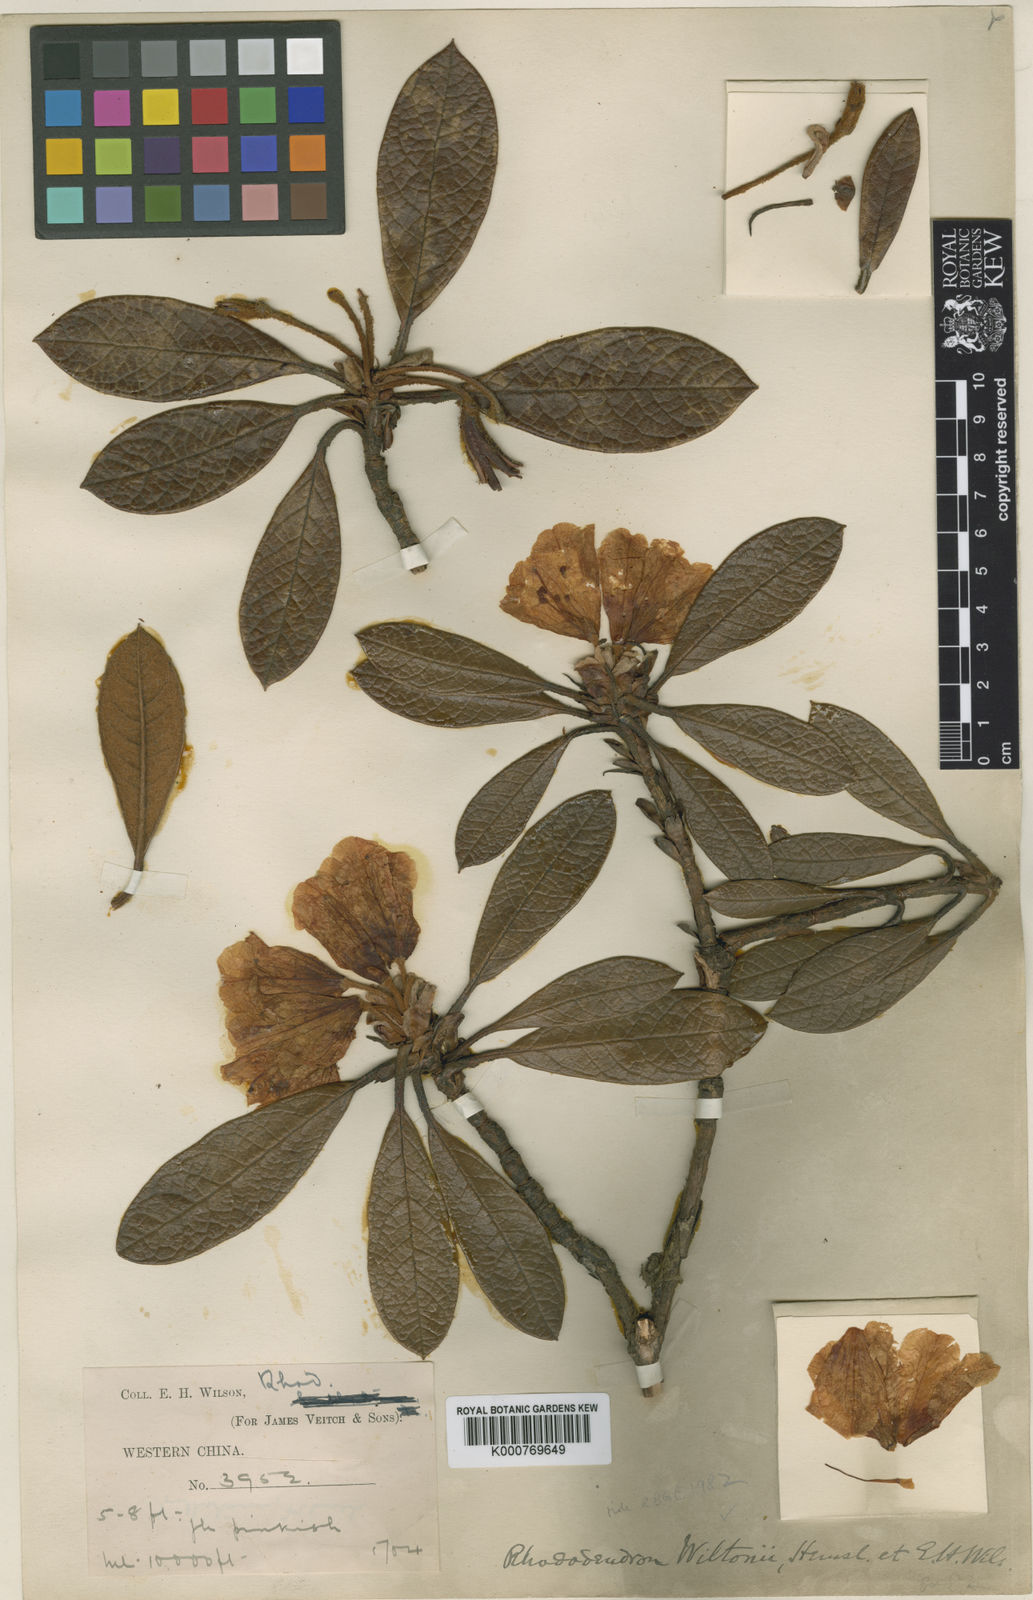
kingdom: Plantae
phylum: Tracheophyta
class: Magnoliopsida
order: Ericales
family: Ericaceae
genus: Rhododendron
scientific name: Rhododendron wiltonii
